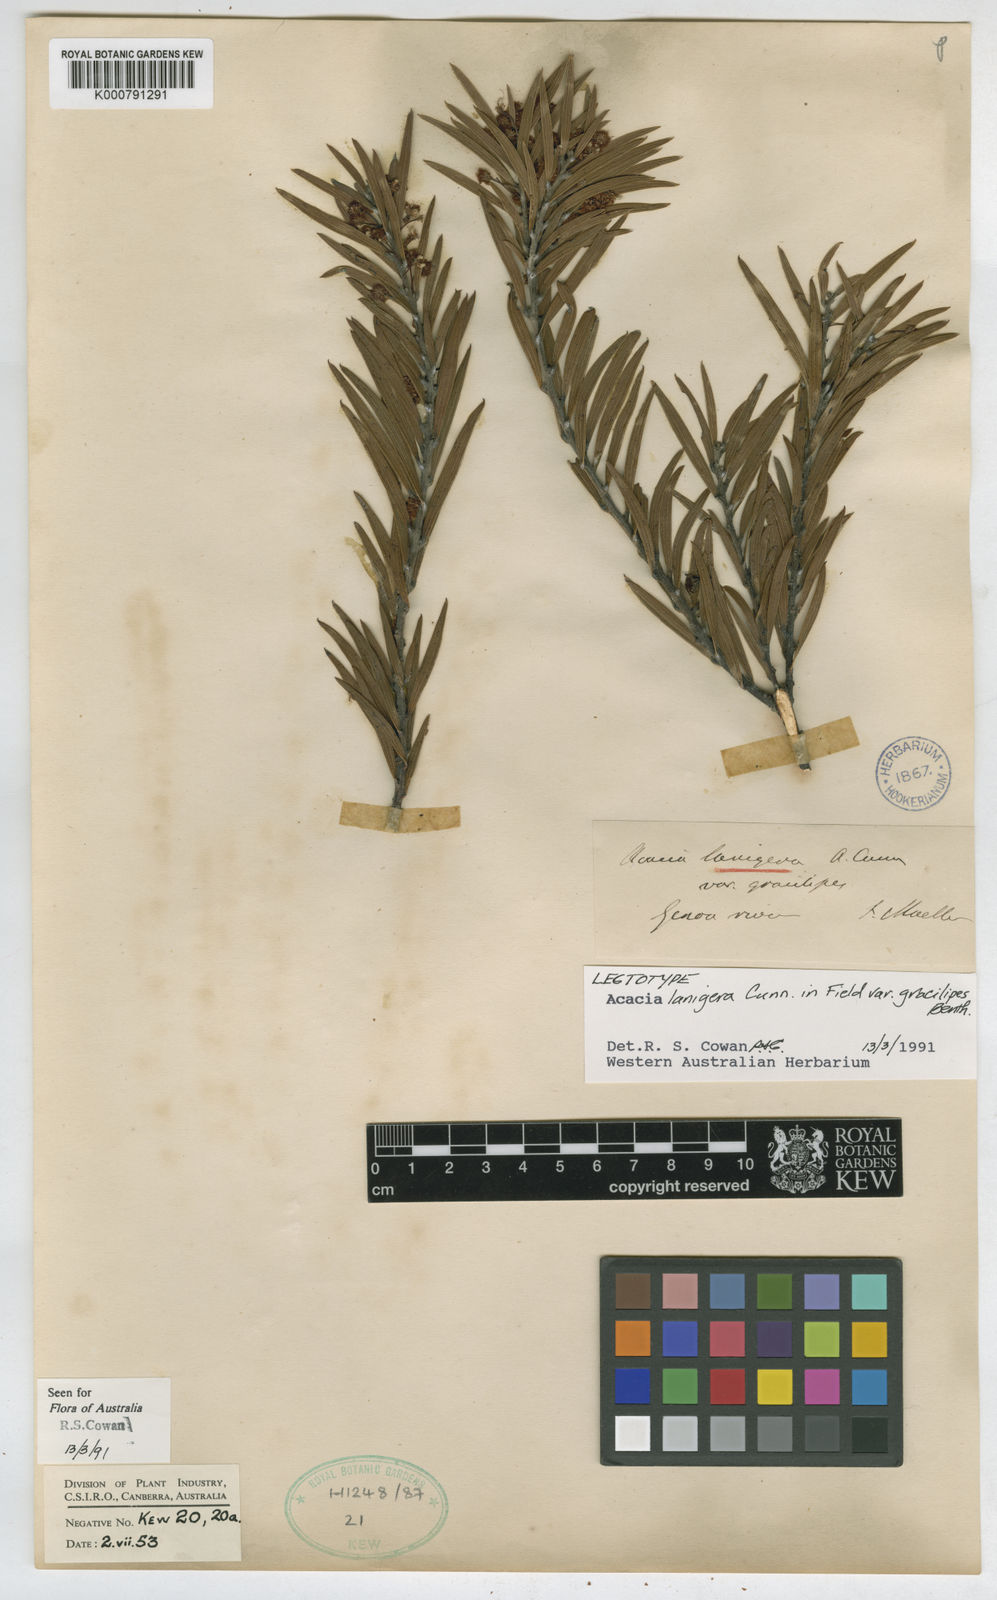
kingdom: Plantae
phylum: Tracheophyta
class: Magnoliopsida
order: Fabales
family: Fabaceae
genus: Acacia
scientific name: Acacia lanigera
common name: Hairy wattle
